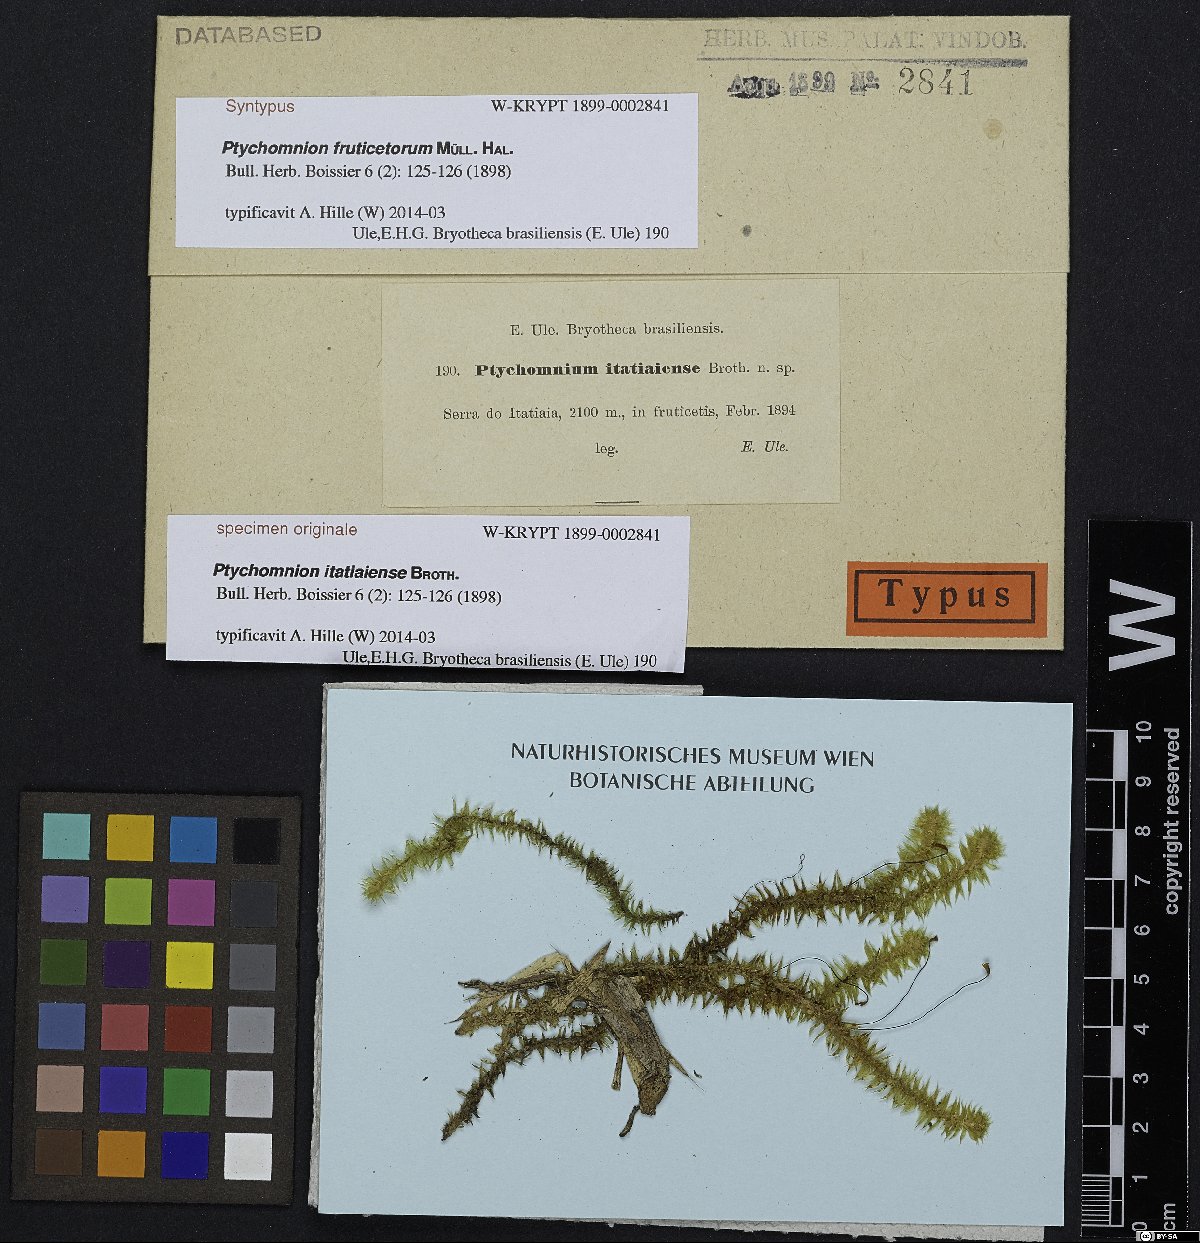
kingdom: Plantae
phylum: Bryophyta
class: Bryopsida
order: Ptychomniales
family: Ptychomniaceae
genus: Ptychomnion
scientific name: Ptychomnion cygnisetum
